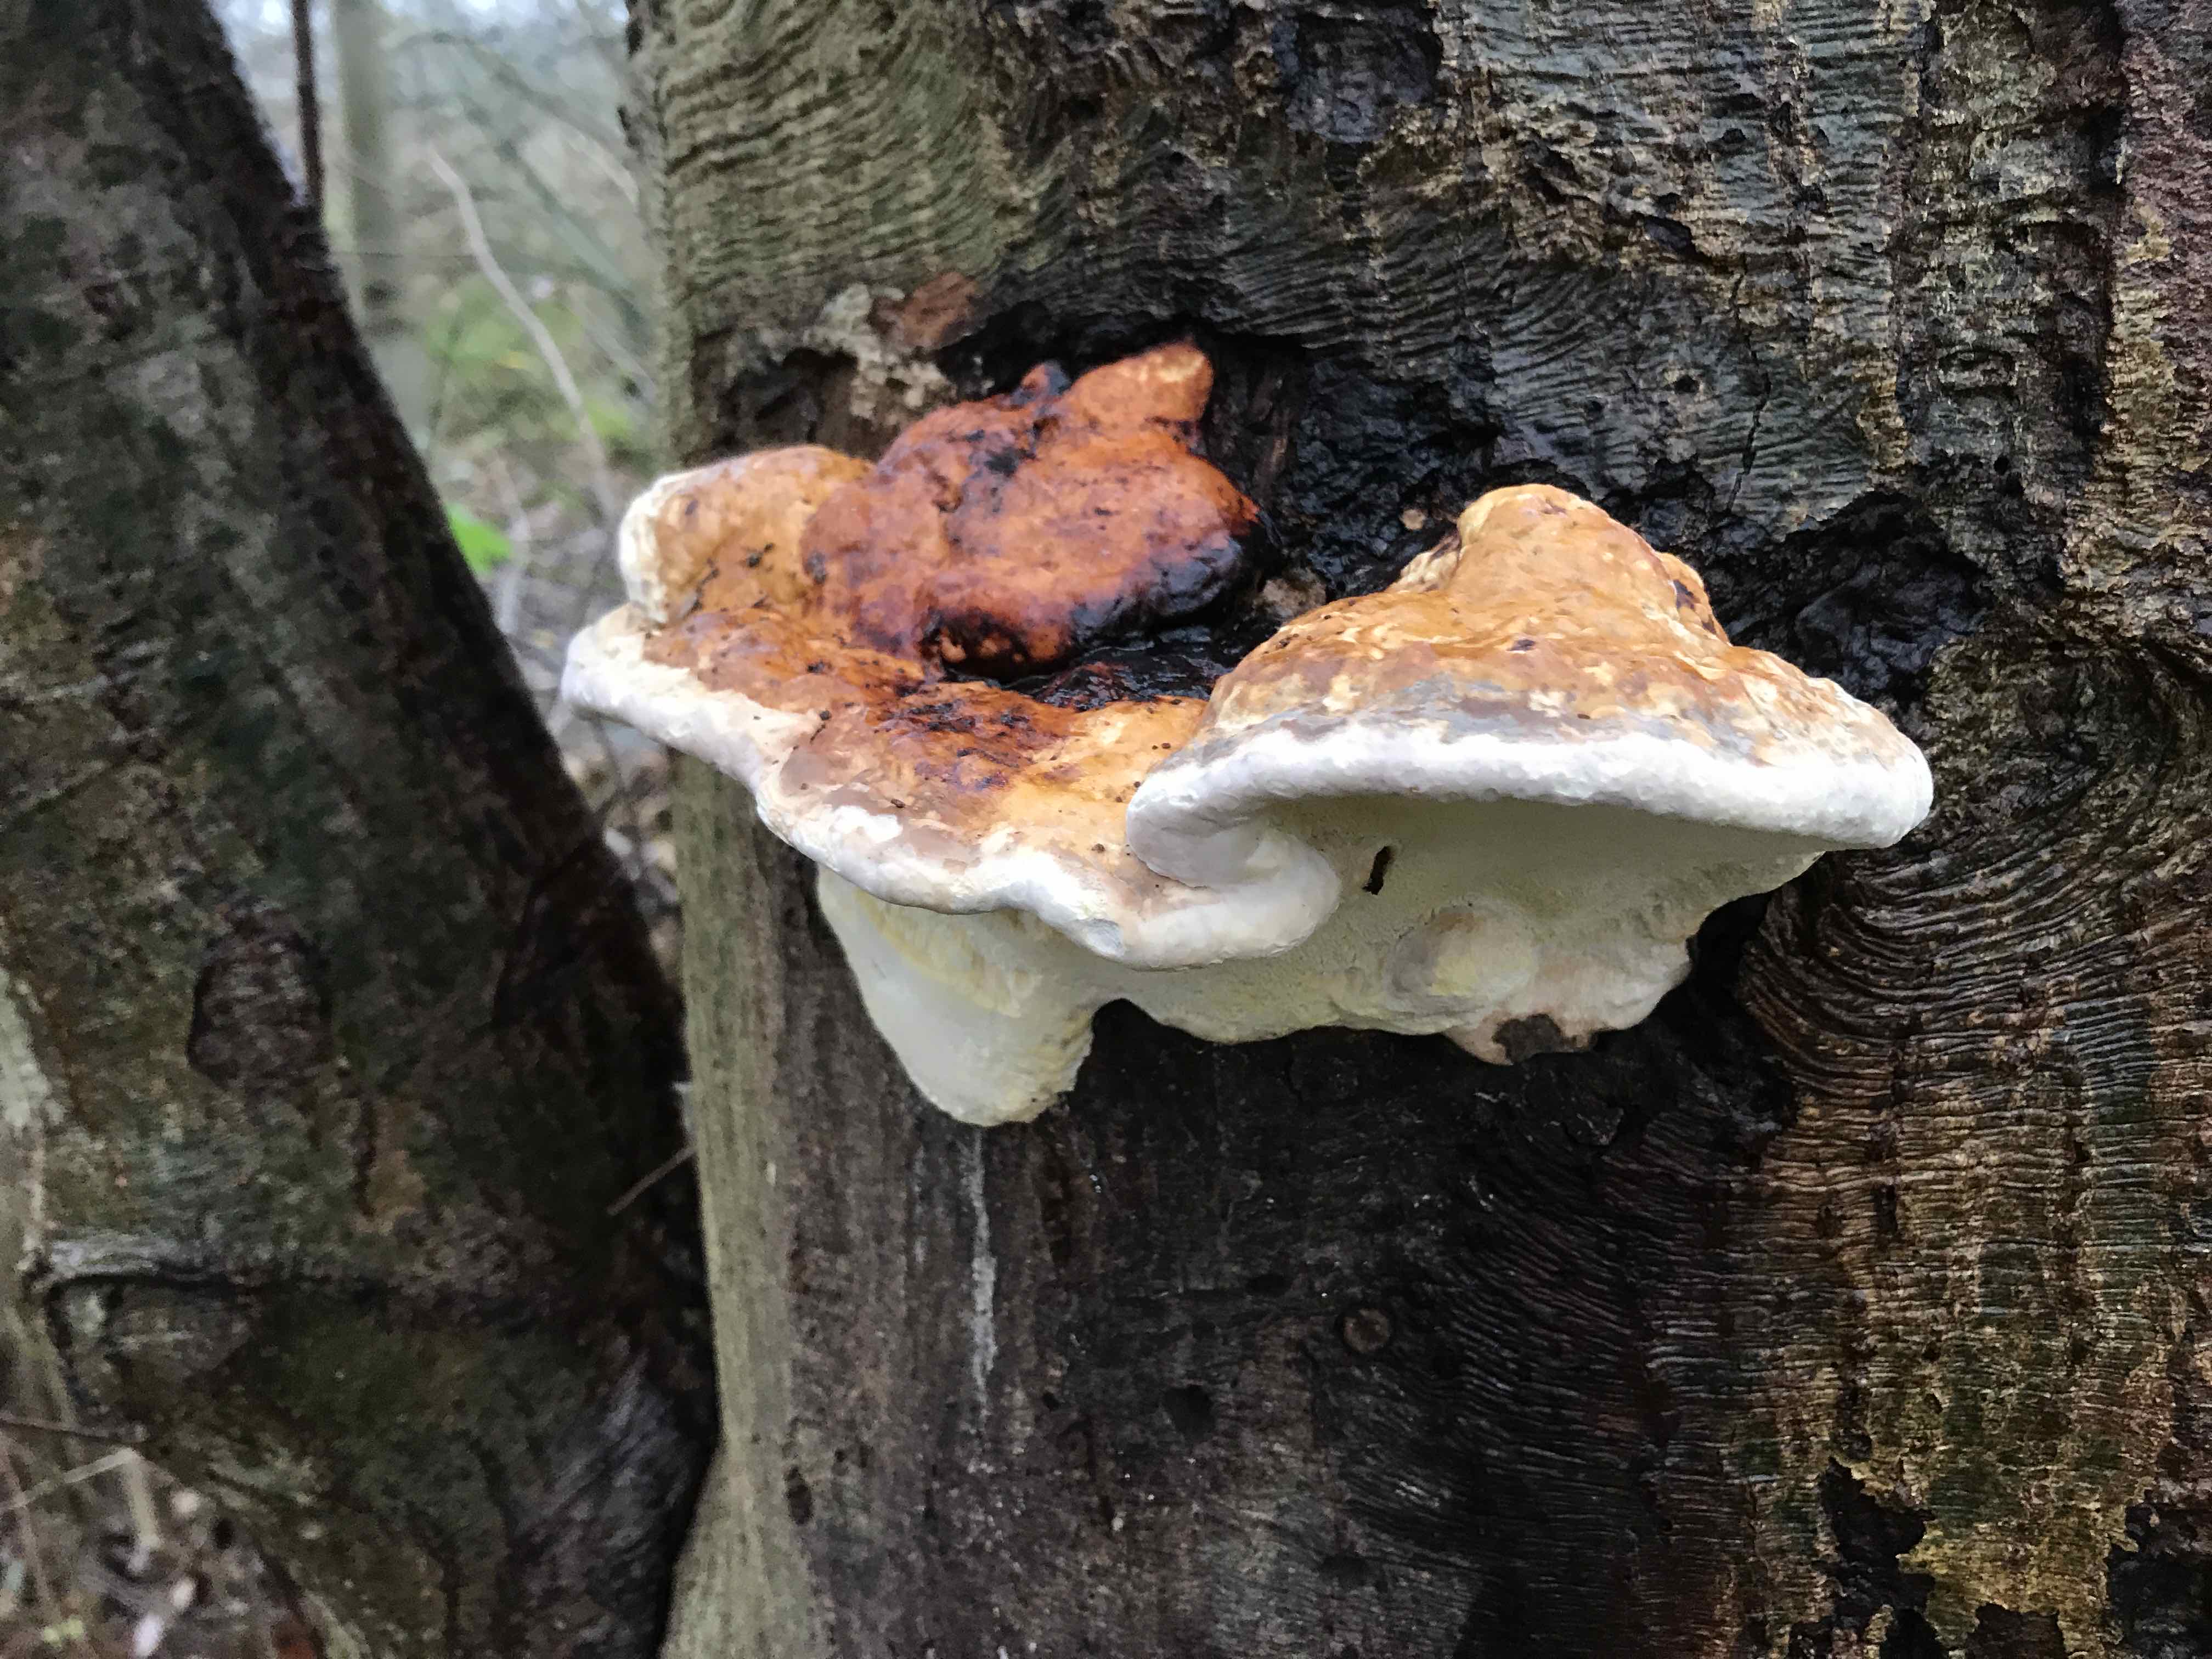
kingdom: Fungi
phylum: Basidiomycota
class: Agaricomycetes
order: Polyporales
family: Fomitopsidaceae
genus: Fomitopsis
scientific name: Fomitopsis pinicola
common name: randbæltet hovporesvamp
